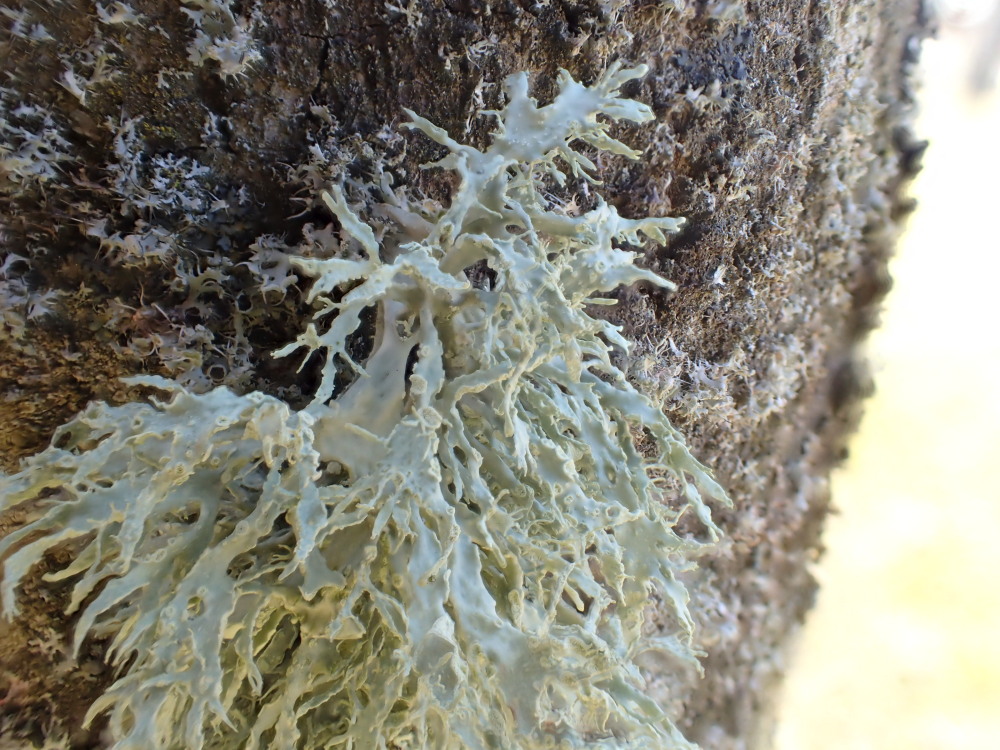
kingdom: Fungi
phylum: Ascomycota
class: Lecanoromycetes
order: Lecanorales
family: Ramalinaceae
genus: Ramalina
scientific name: Ramalina farinacea
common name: melet grenlav
